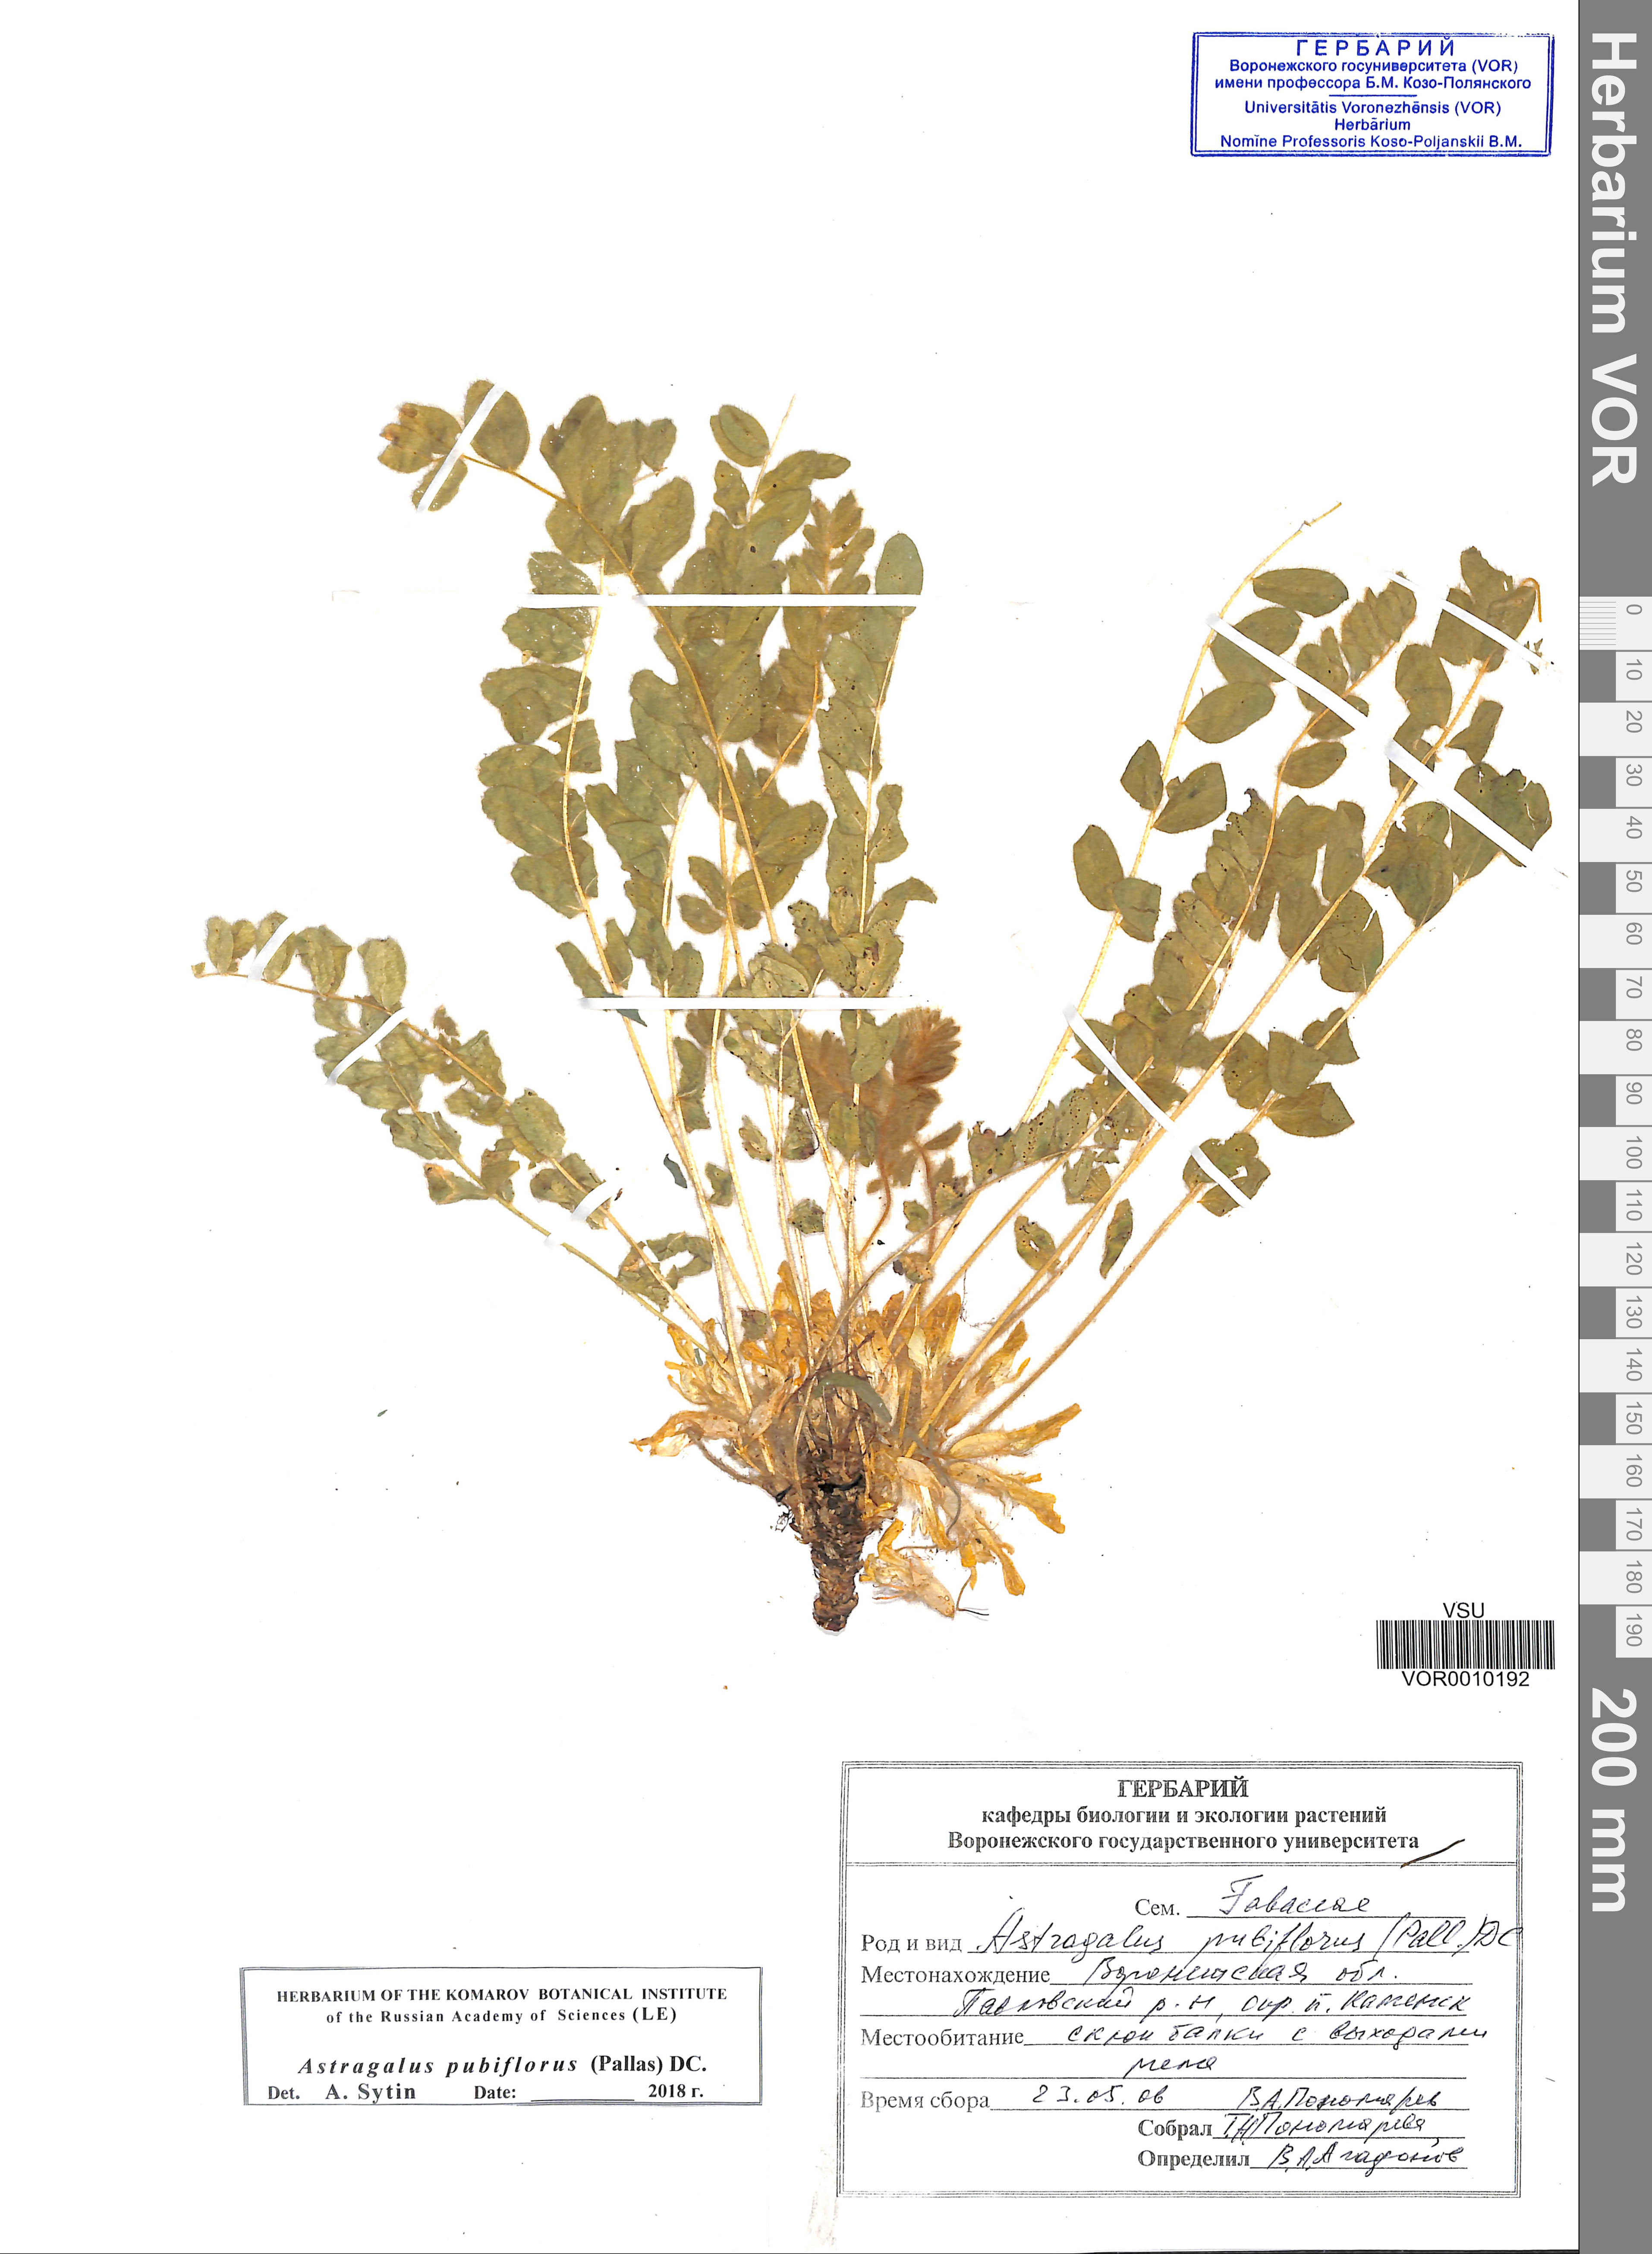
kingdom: Plantae
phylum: Tracheophyta
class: Magnoliopsida
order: Fabales
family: Fabaceae
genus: Astragalus
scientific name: Astragalus exscapus
